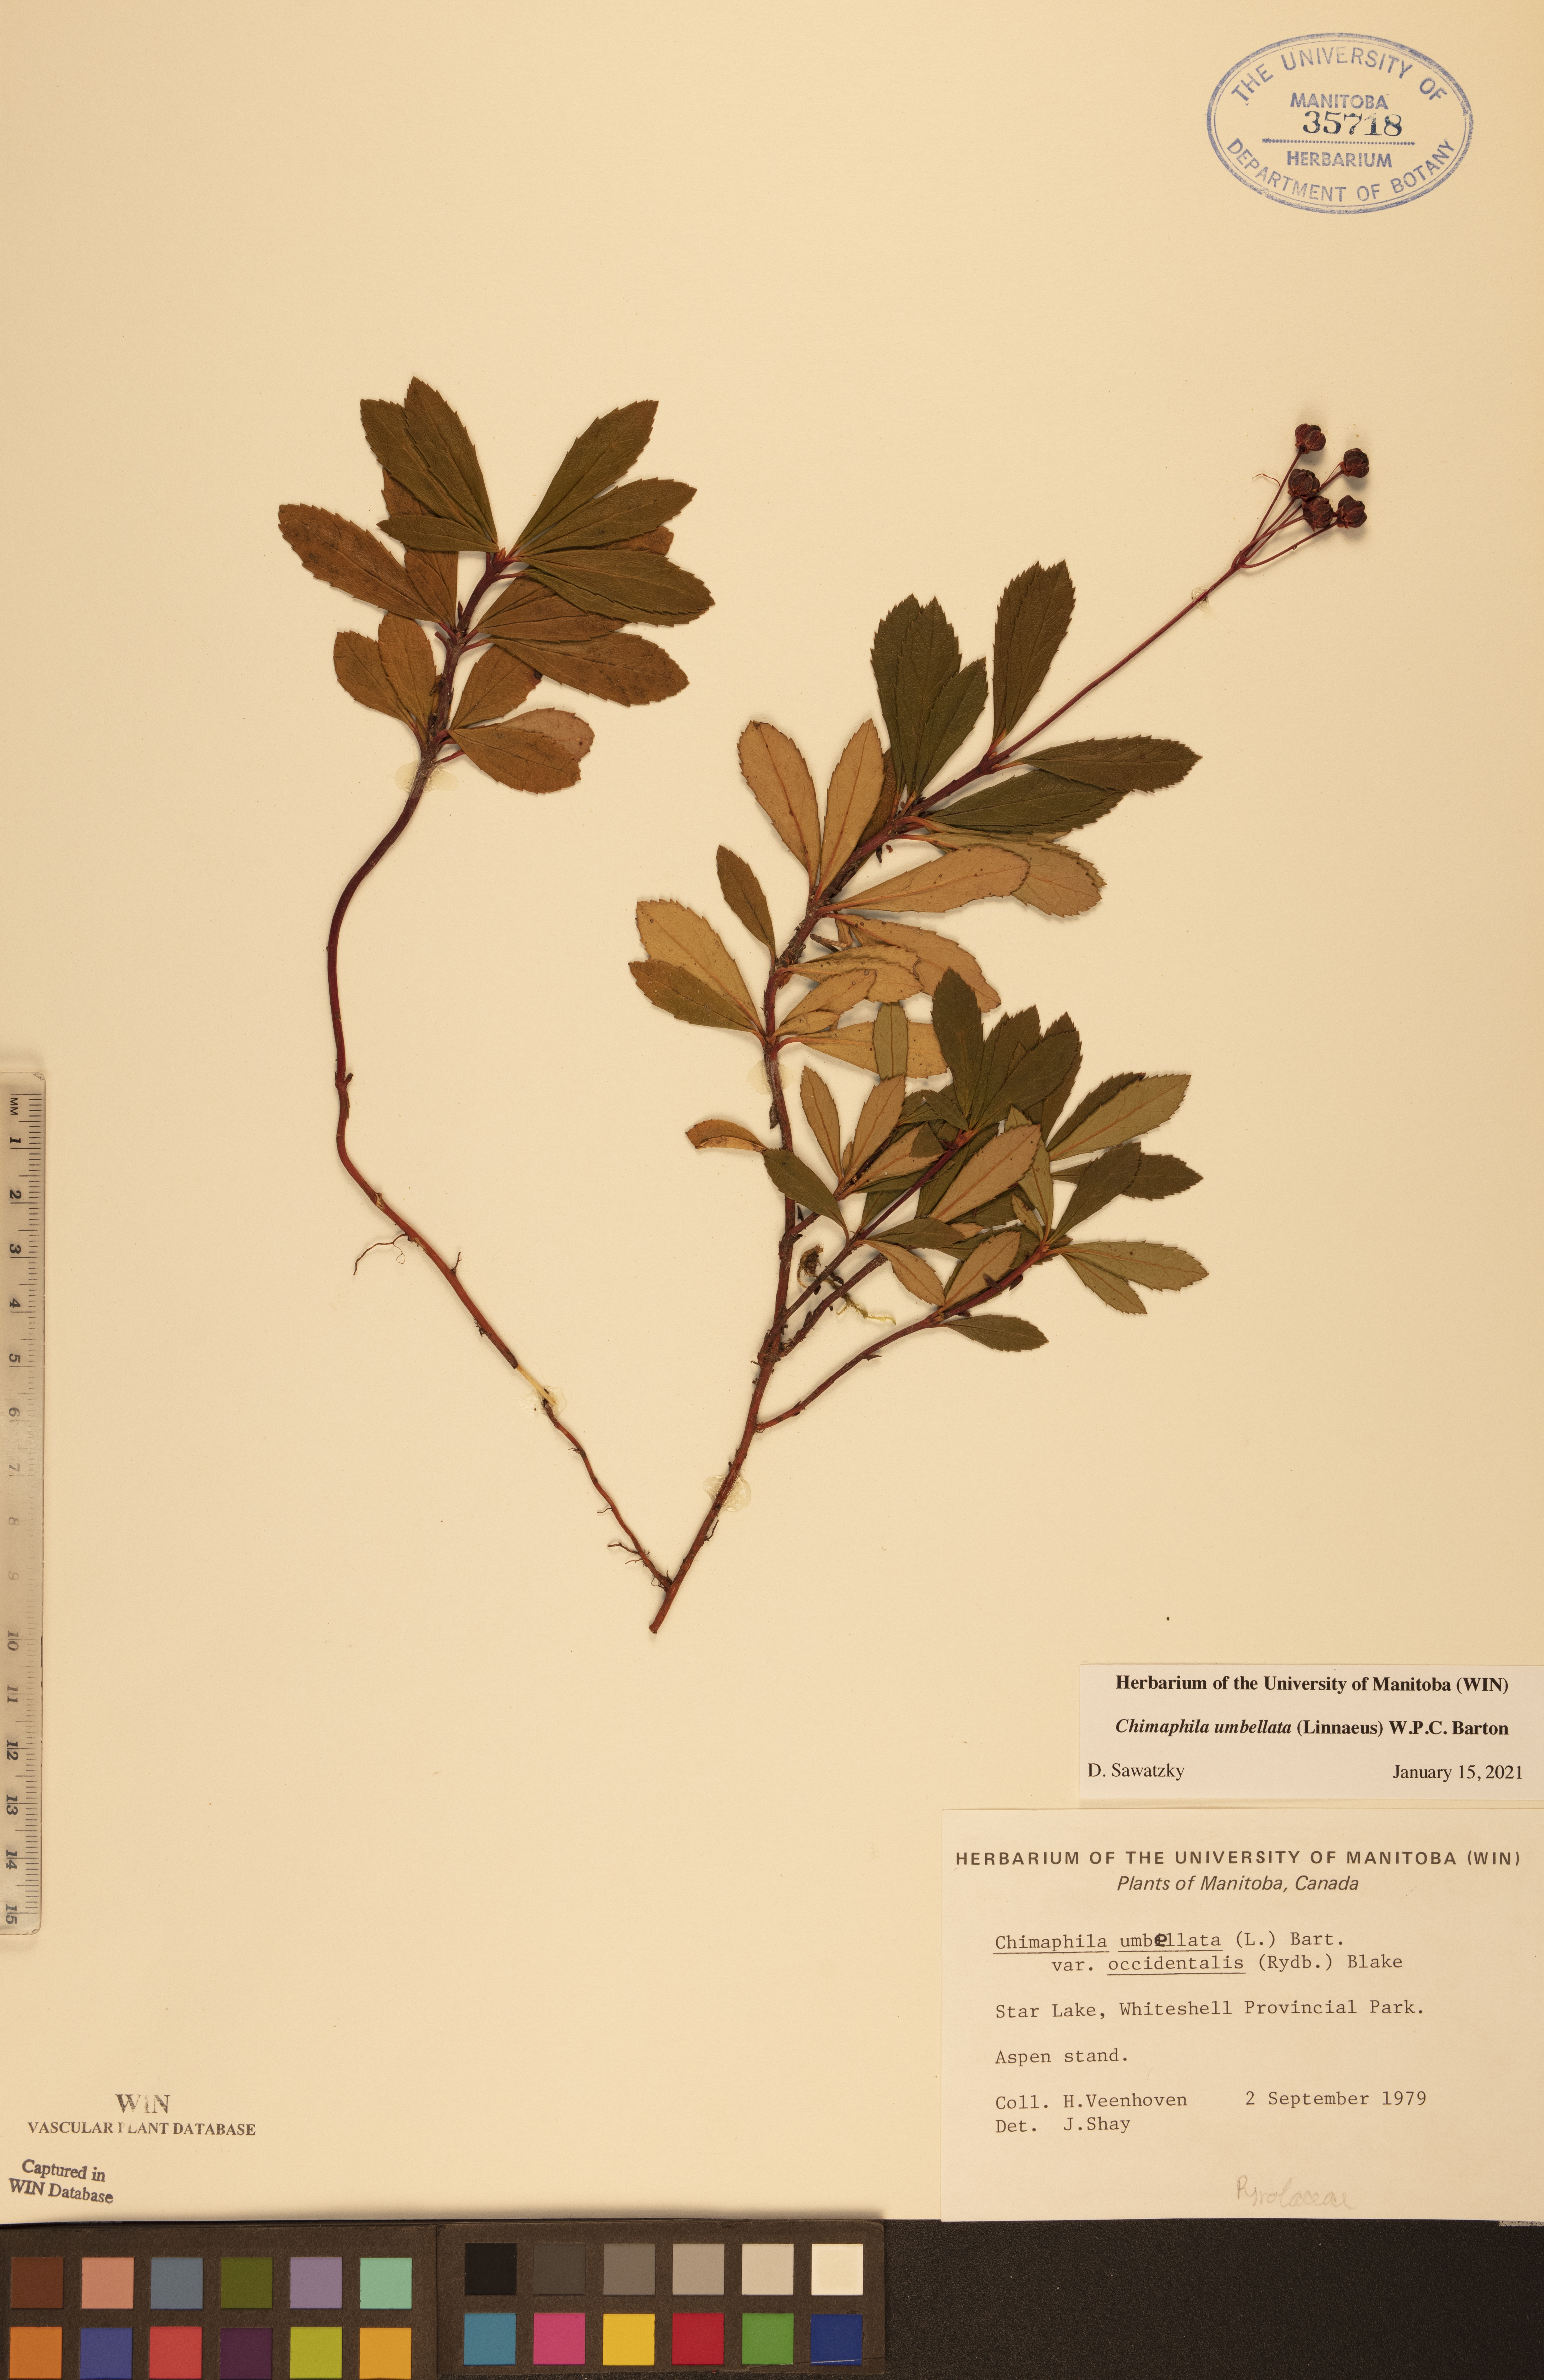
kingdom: Plantae
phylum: Tracheophyta
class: Magnoliopsida
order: Ericales
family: Ericaceae
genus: Chimaphila
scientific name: Chimaphila umbellata
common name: Pipsissewa
